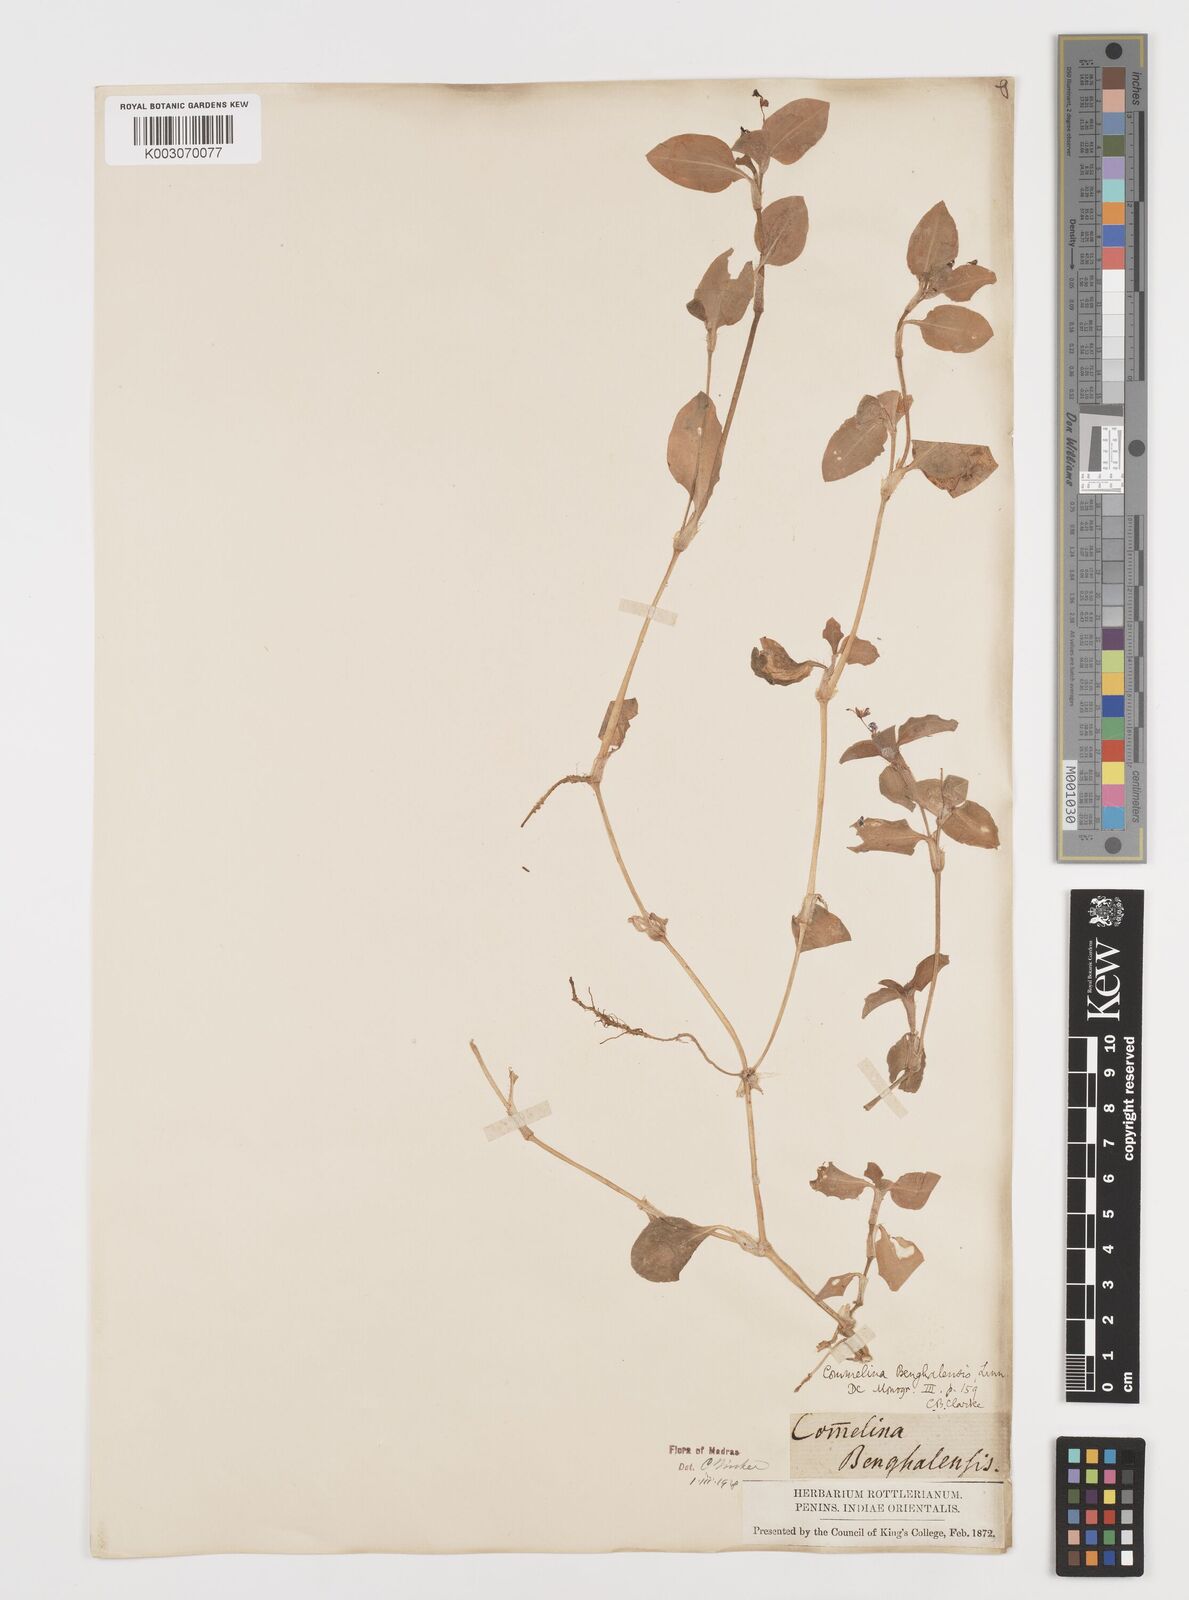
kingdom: Plantae
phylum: Tracheophyta
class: Liliopsida
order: Commelinales
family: Commelinaceae
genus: Commelina
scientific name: Commelina benghalensis
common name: Jio
